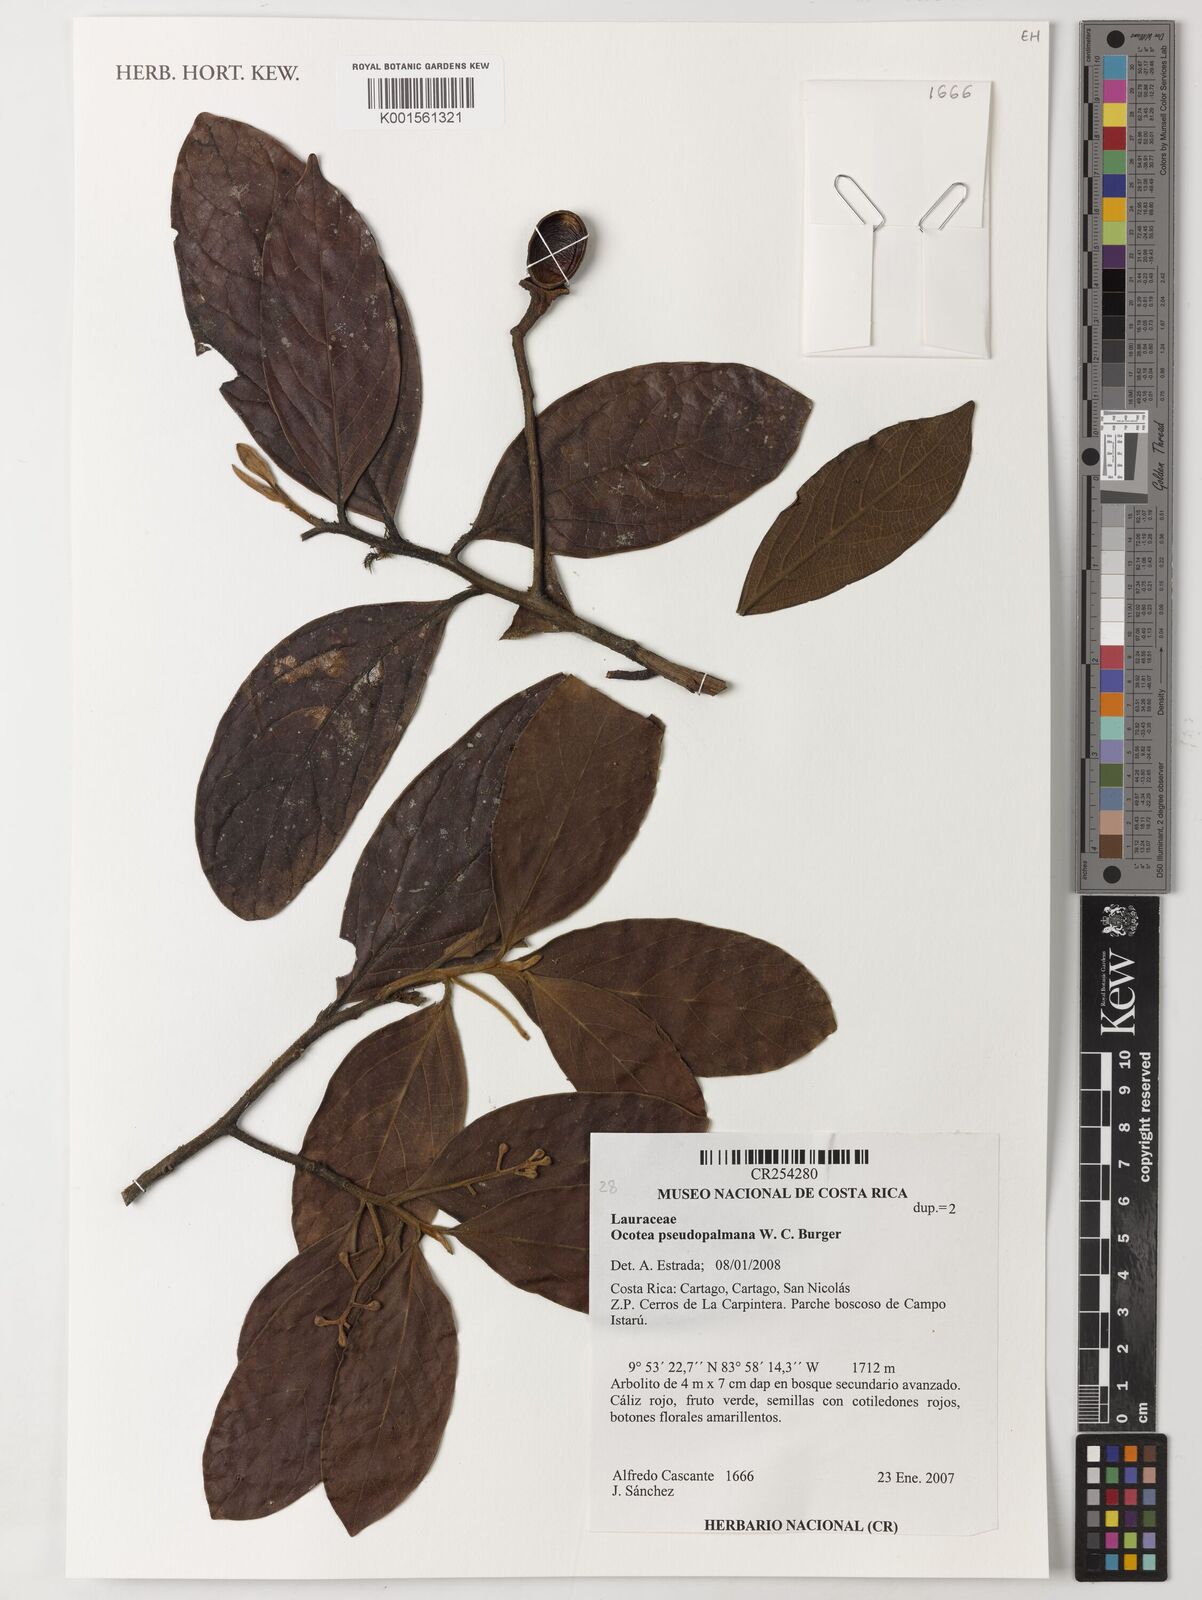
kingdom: Plantae
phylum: Tracheophyta
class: Magnoliopsida
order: Laurales
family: Lauraceae
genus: Ocotea
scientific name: Ocotea pseudopalmana
